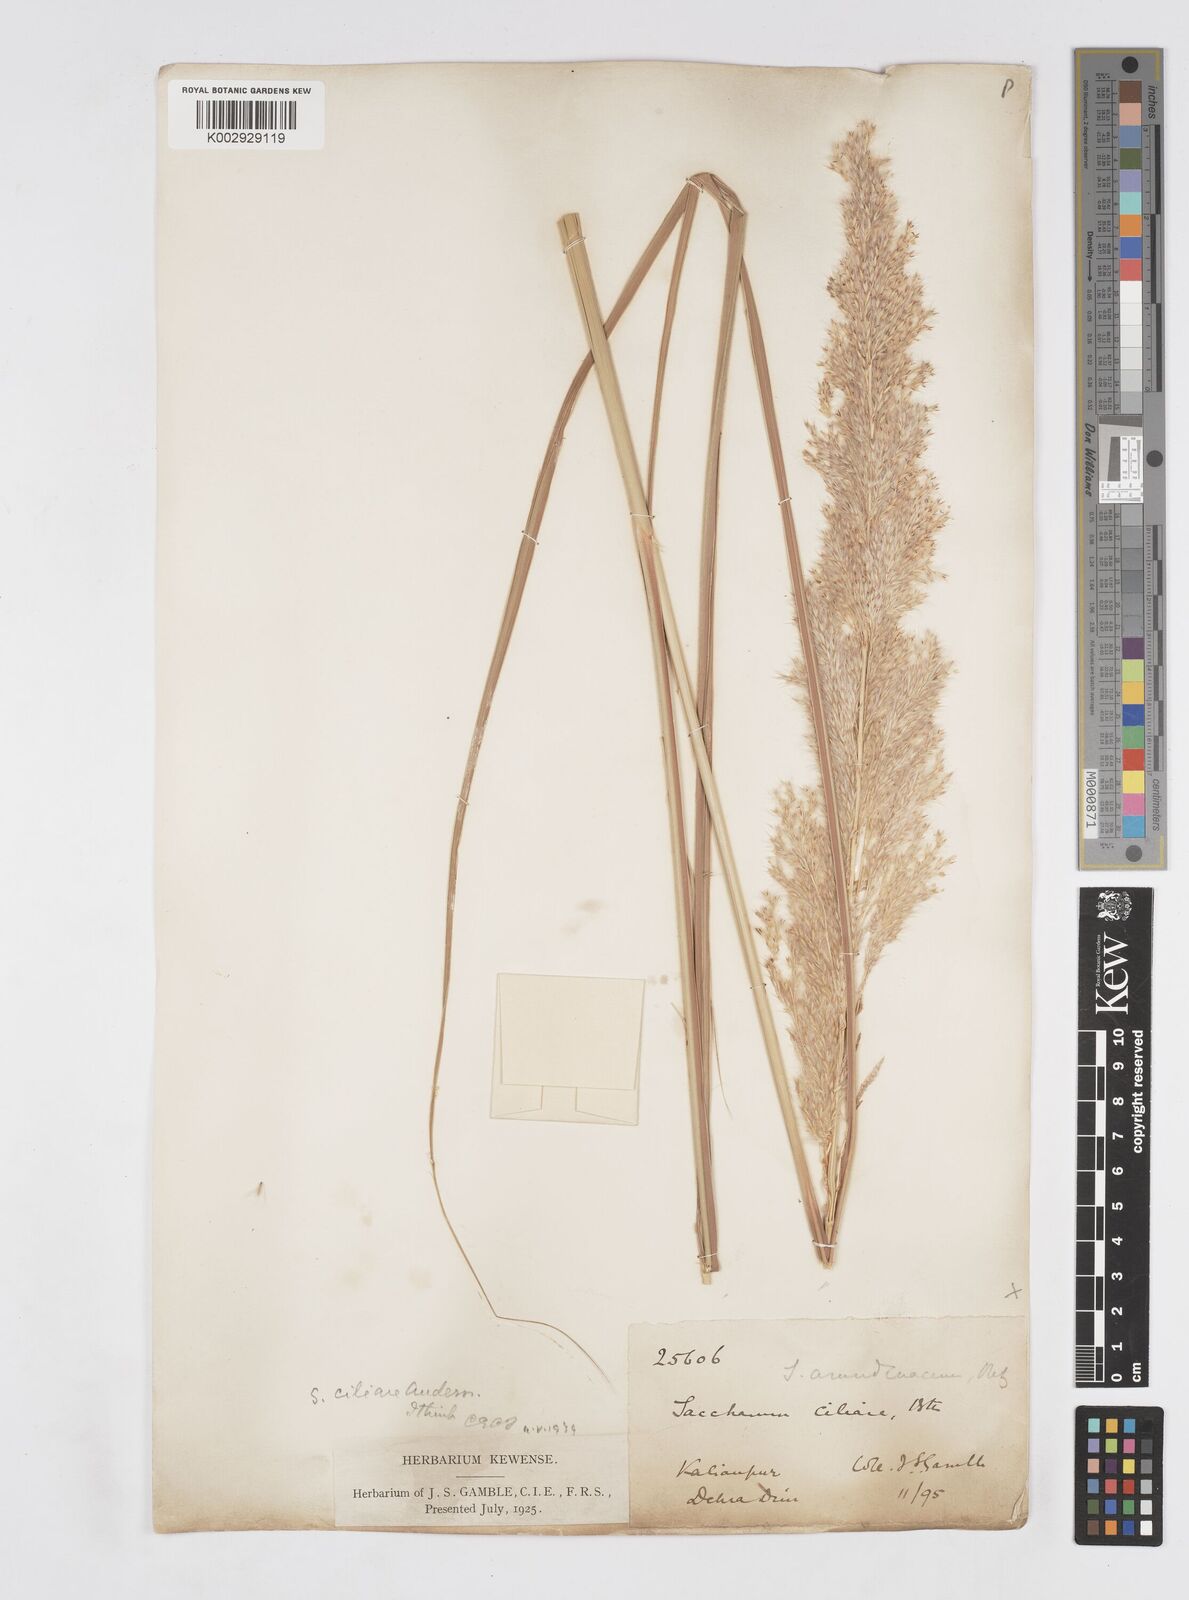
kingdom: Plantae
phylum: Tracheophyta
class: Liliopsida
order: Poales
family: Poaceae
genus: Tripidium
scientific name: Tripidium bengalense
